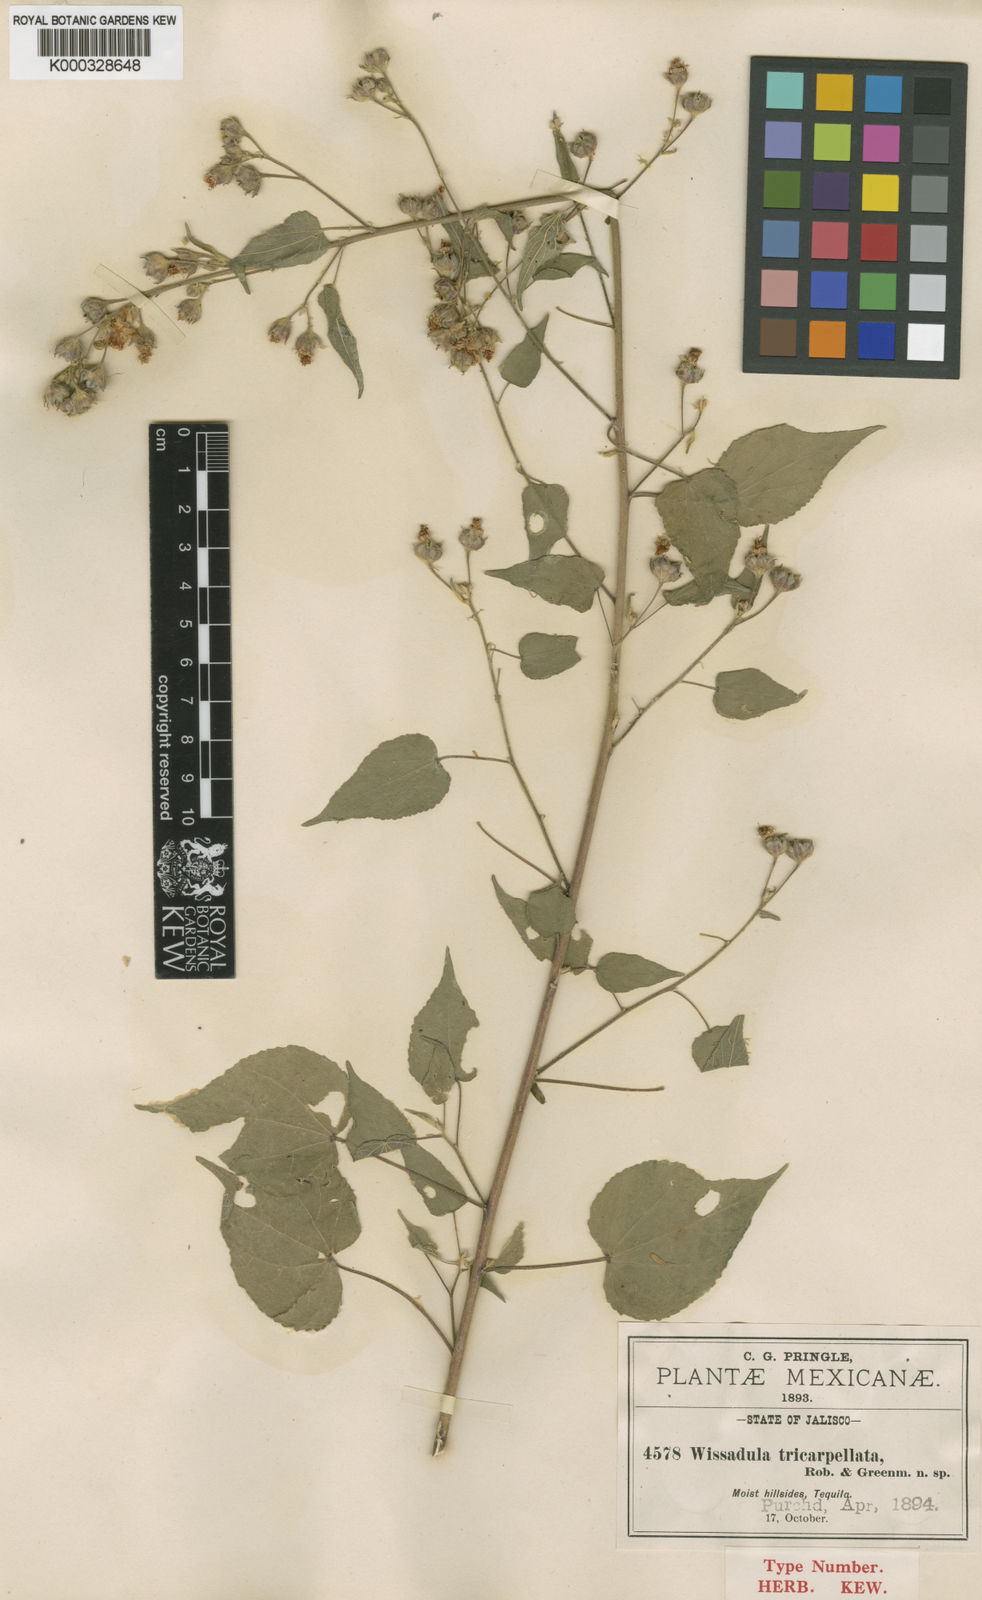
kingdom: Plantae
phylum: Tracheophyta
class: Magnoliopsida
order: Malvales
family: Malvaceae
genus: Bastardiastrum
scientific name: Bastardiastrum tricarpellatum
